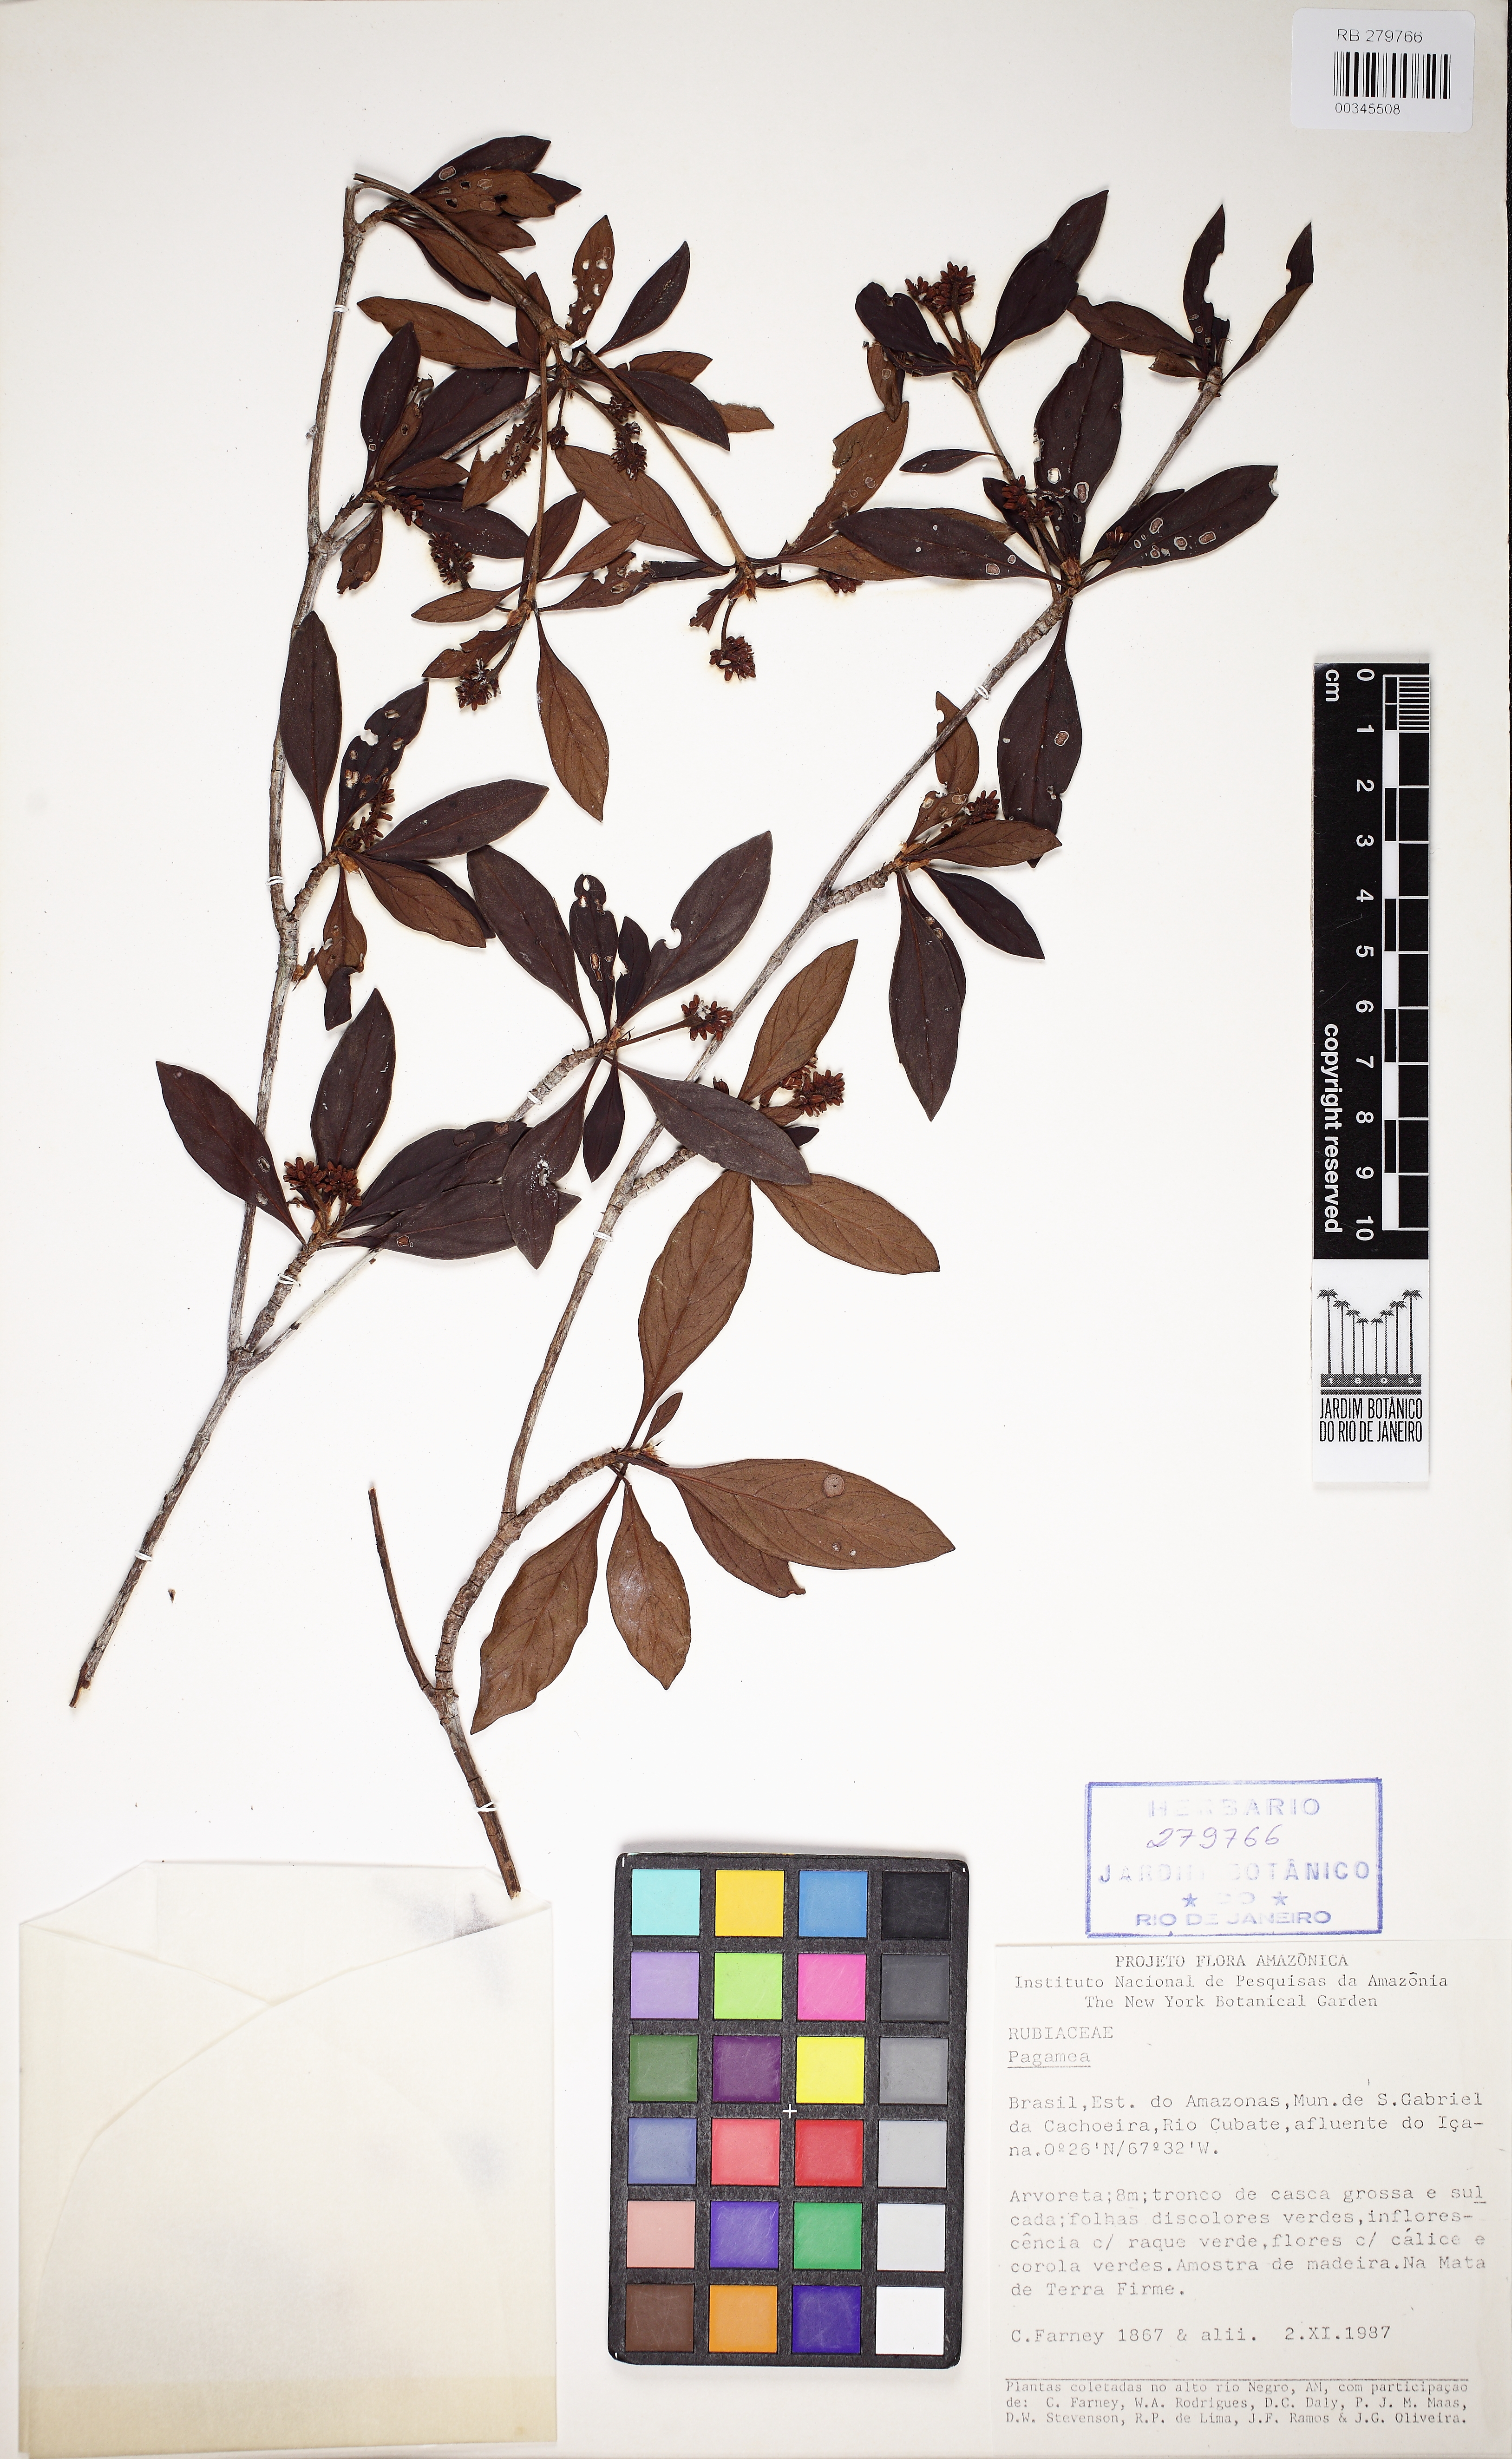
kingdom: Plantae
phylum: Tracheophyta
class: Magnoliopsida
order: Gentianales
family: Rubiaceae
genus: Pagamea
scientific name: Pagamea
